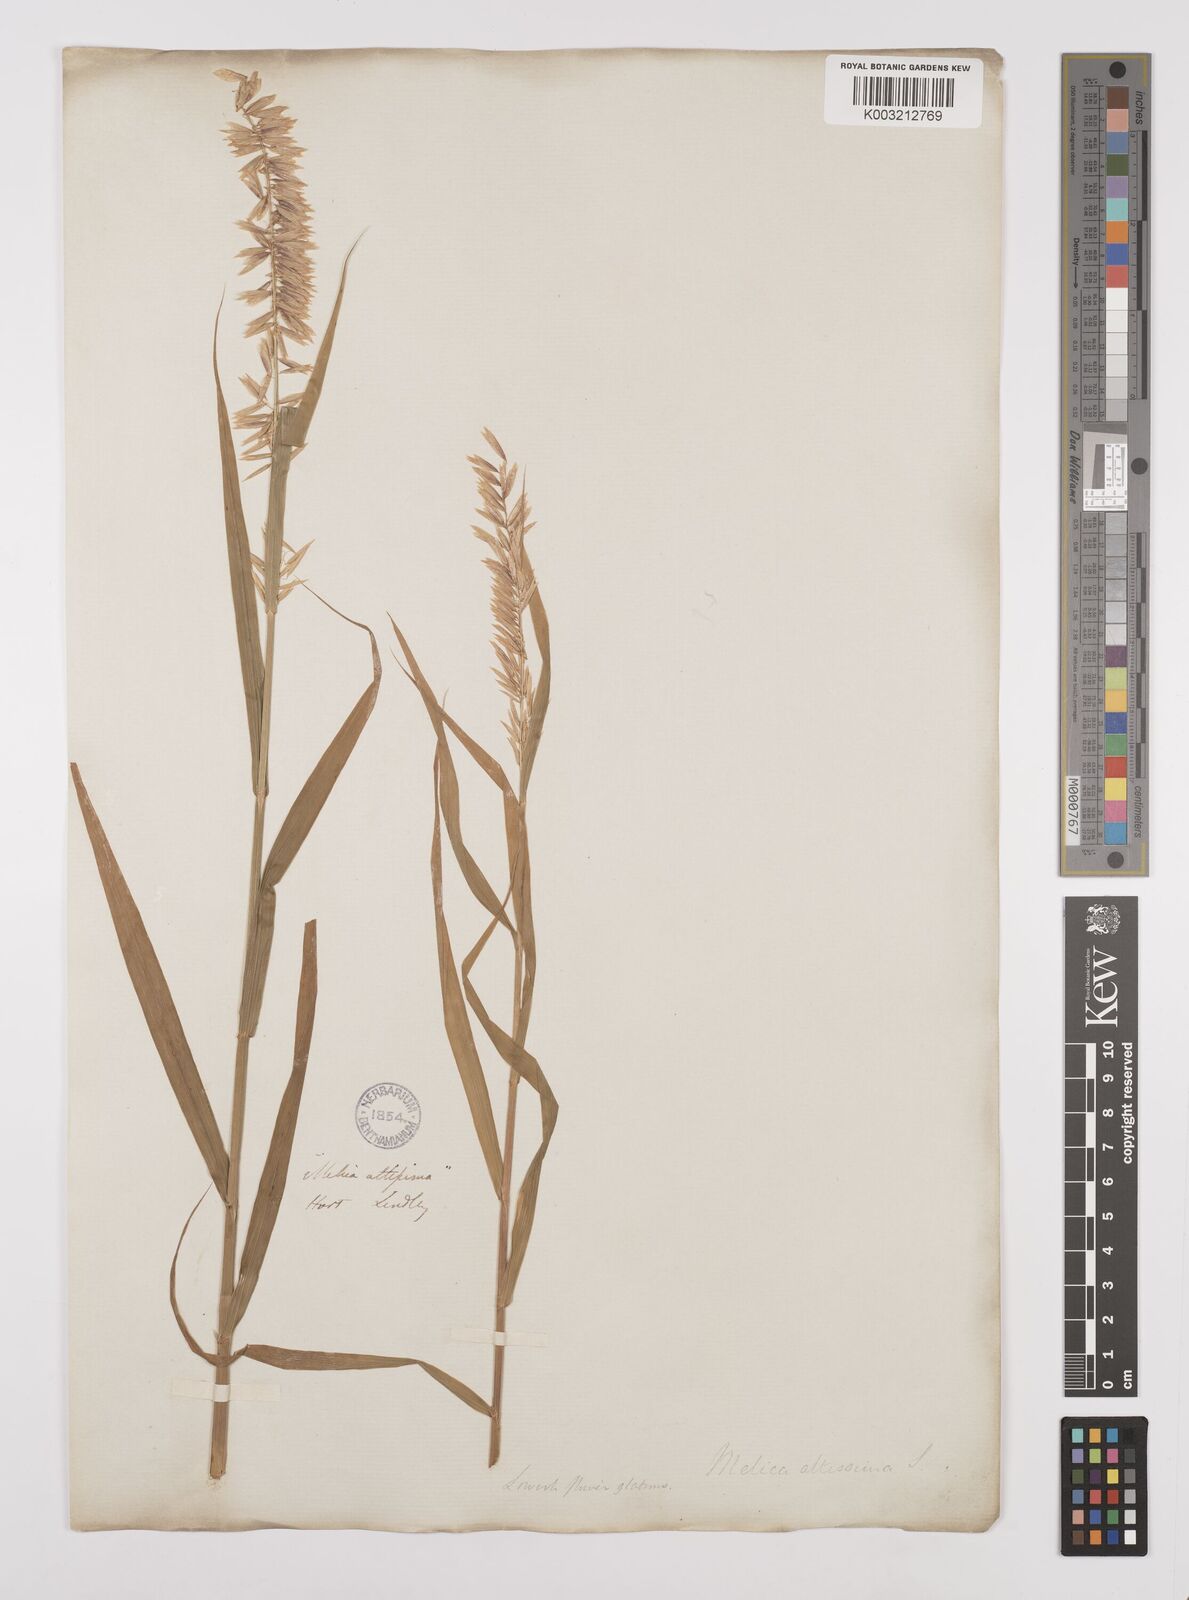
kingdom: Plantae
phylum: Tracheophyta
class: Liliopsida
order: Poales
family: Poaceae
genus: Melica
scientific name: Melica altissima
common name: Siberian melicgrass
